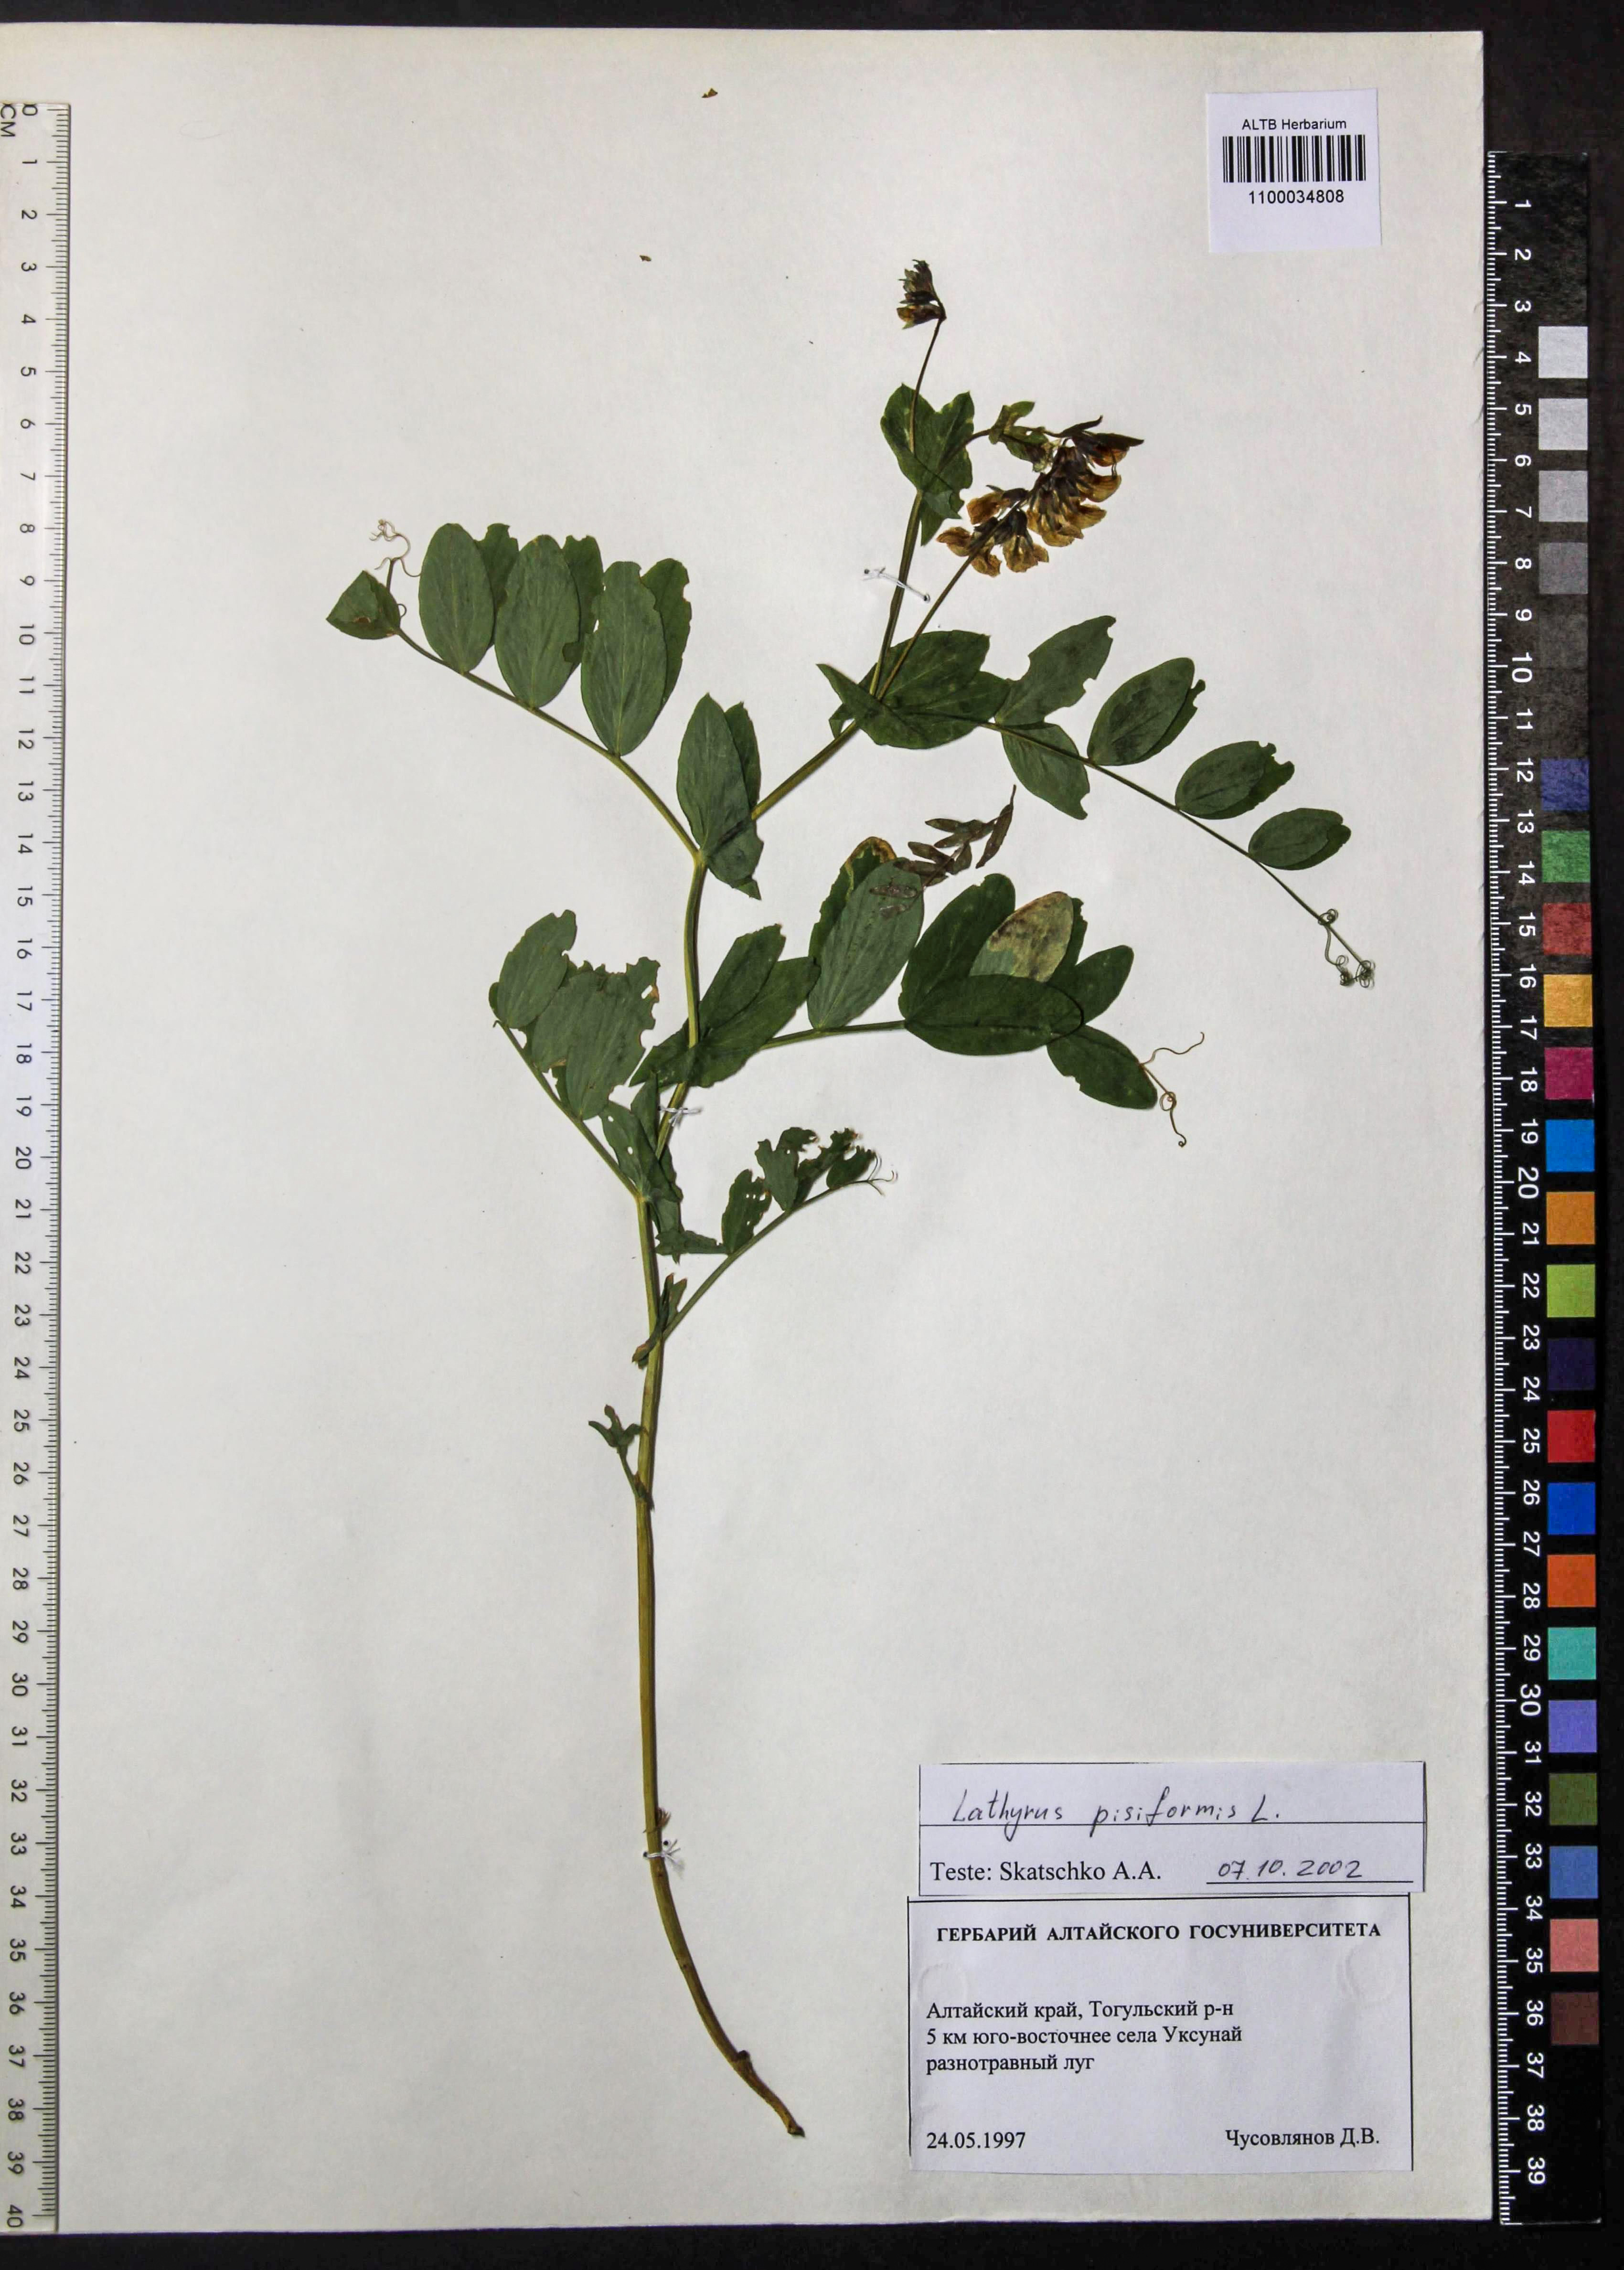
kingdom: Plantae
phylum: Tracheophyta
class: Magnoliopsida
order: Fabales
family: Fabaceae
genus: Lathyrus
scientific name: Lathyrus pisiformis
